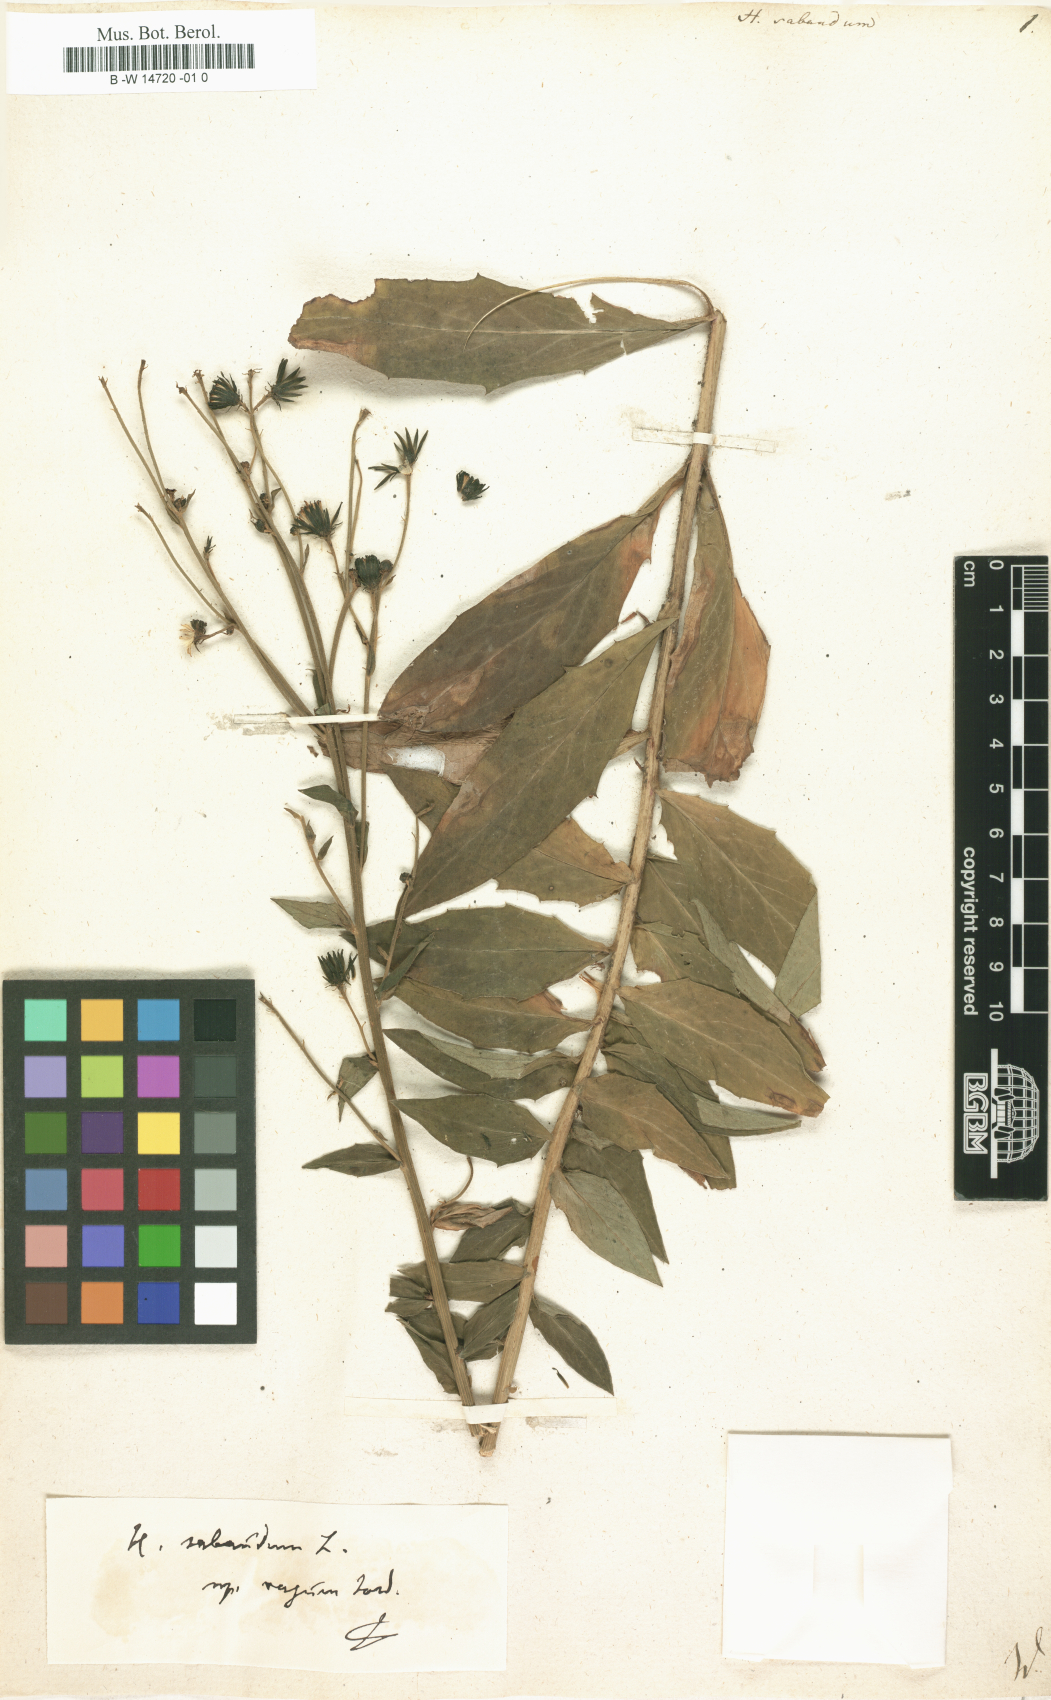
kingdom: Plantae
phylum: Tracheophyta
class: Magnoliopsida
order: Asterales
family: Asteraceae
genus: Hieracium
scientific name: Hieracium sabaudum
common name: New england hawkweed
